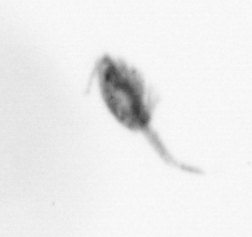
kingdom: Animalia
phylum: Arthropoda
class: Copepoda
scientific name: Copepoda
